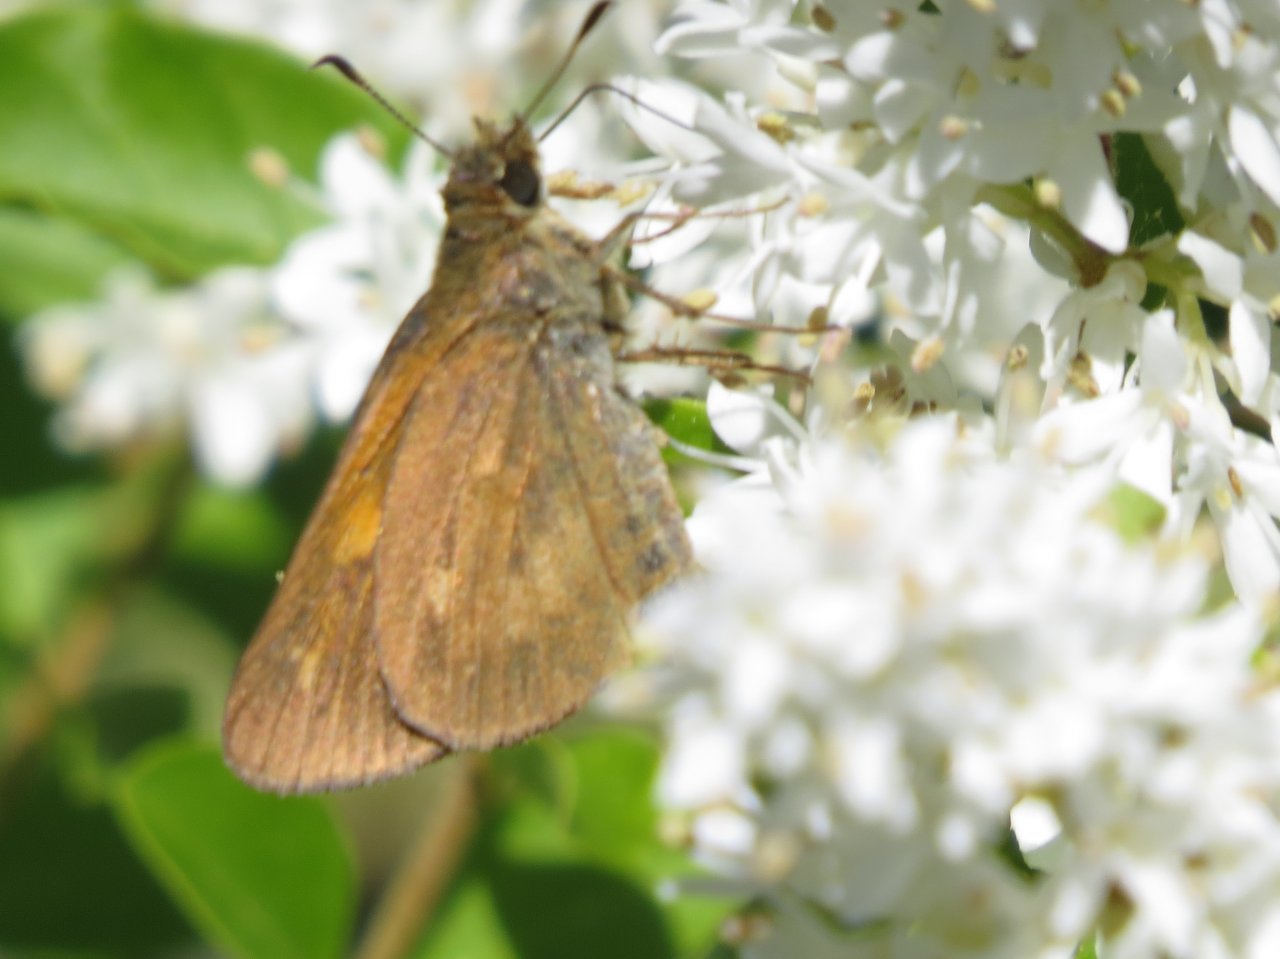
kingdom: Animalia
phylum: Arthropoda
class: Insecta
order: Lepidoptera
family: Hesperiidae
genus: Poanes
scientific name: Poanes viator
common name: Broad-winged Skipper
